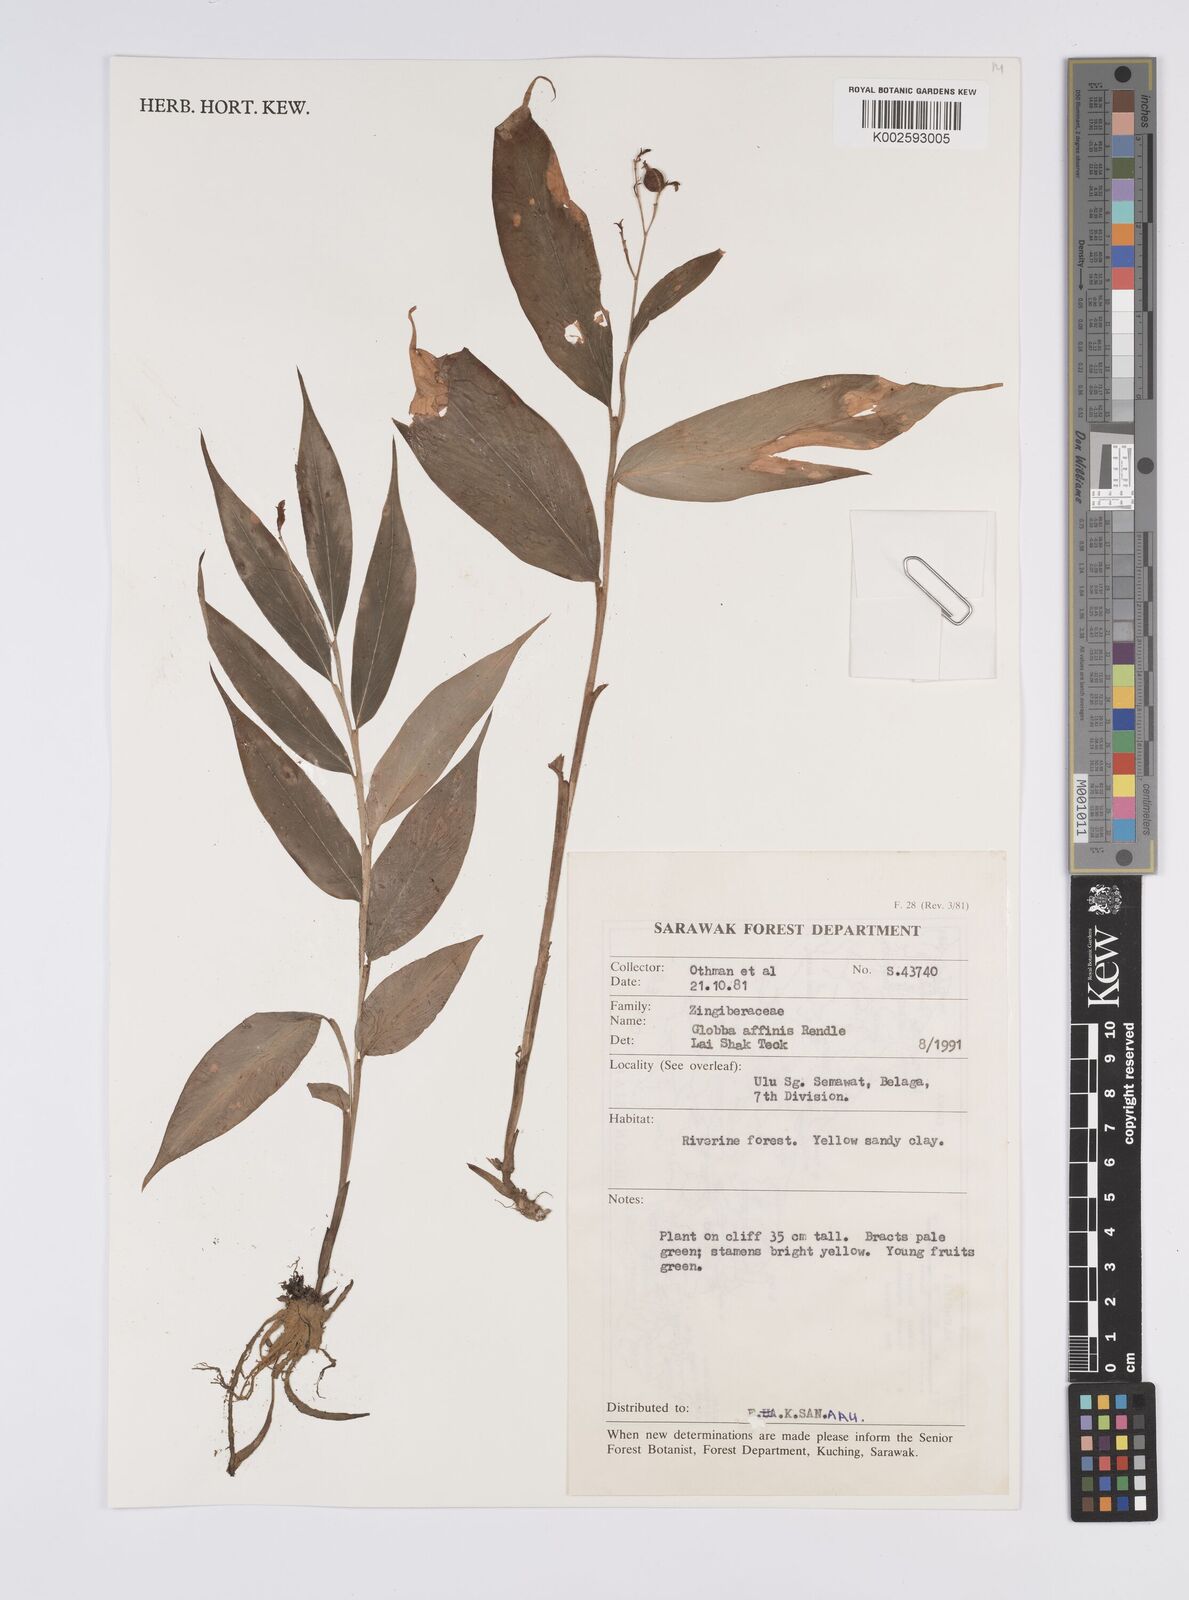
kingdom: Plantae
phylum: Tracheophyta
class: Liliopsida
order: Zingiberales
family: Zingiberaceae
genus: Globba
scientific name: Globba brachyanthera
